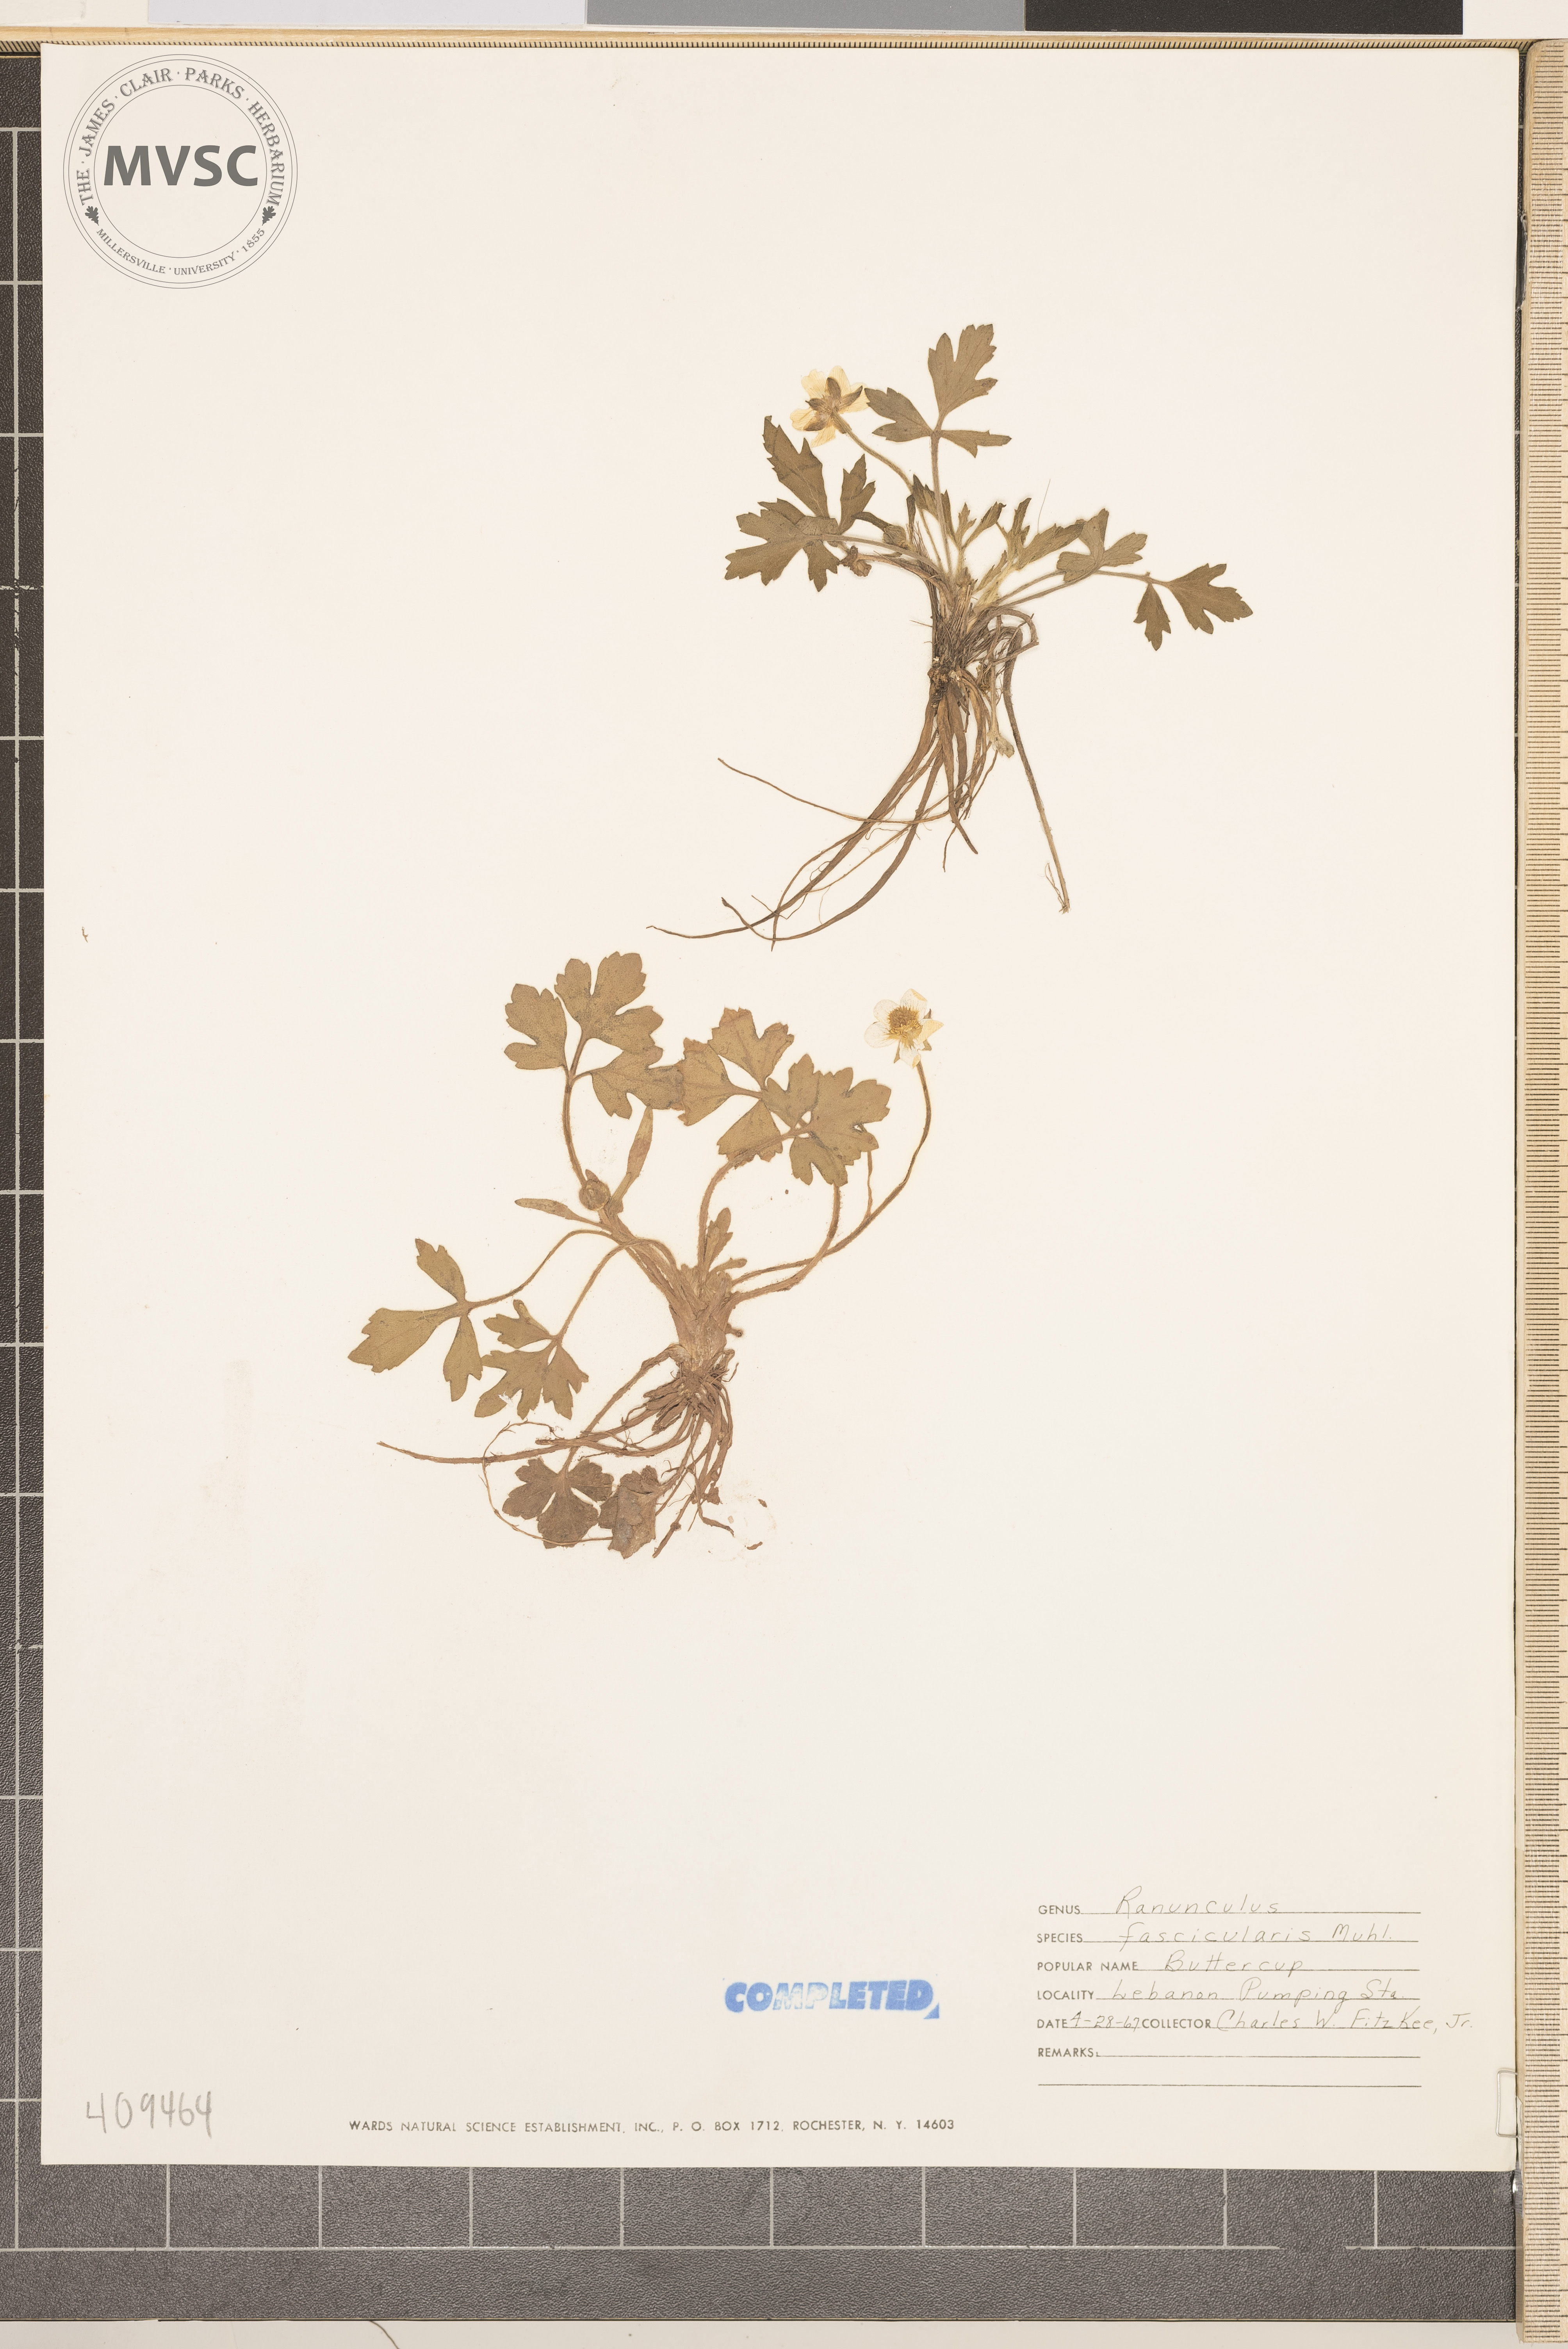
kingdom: Plantae
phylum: Tracheophyta
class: Magnoliopsida
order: Ranunculales
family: Ranunculaceae
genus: Ranunculus
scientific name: Ranunculus hispidus
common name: early buttercup
